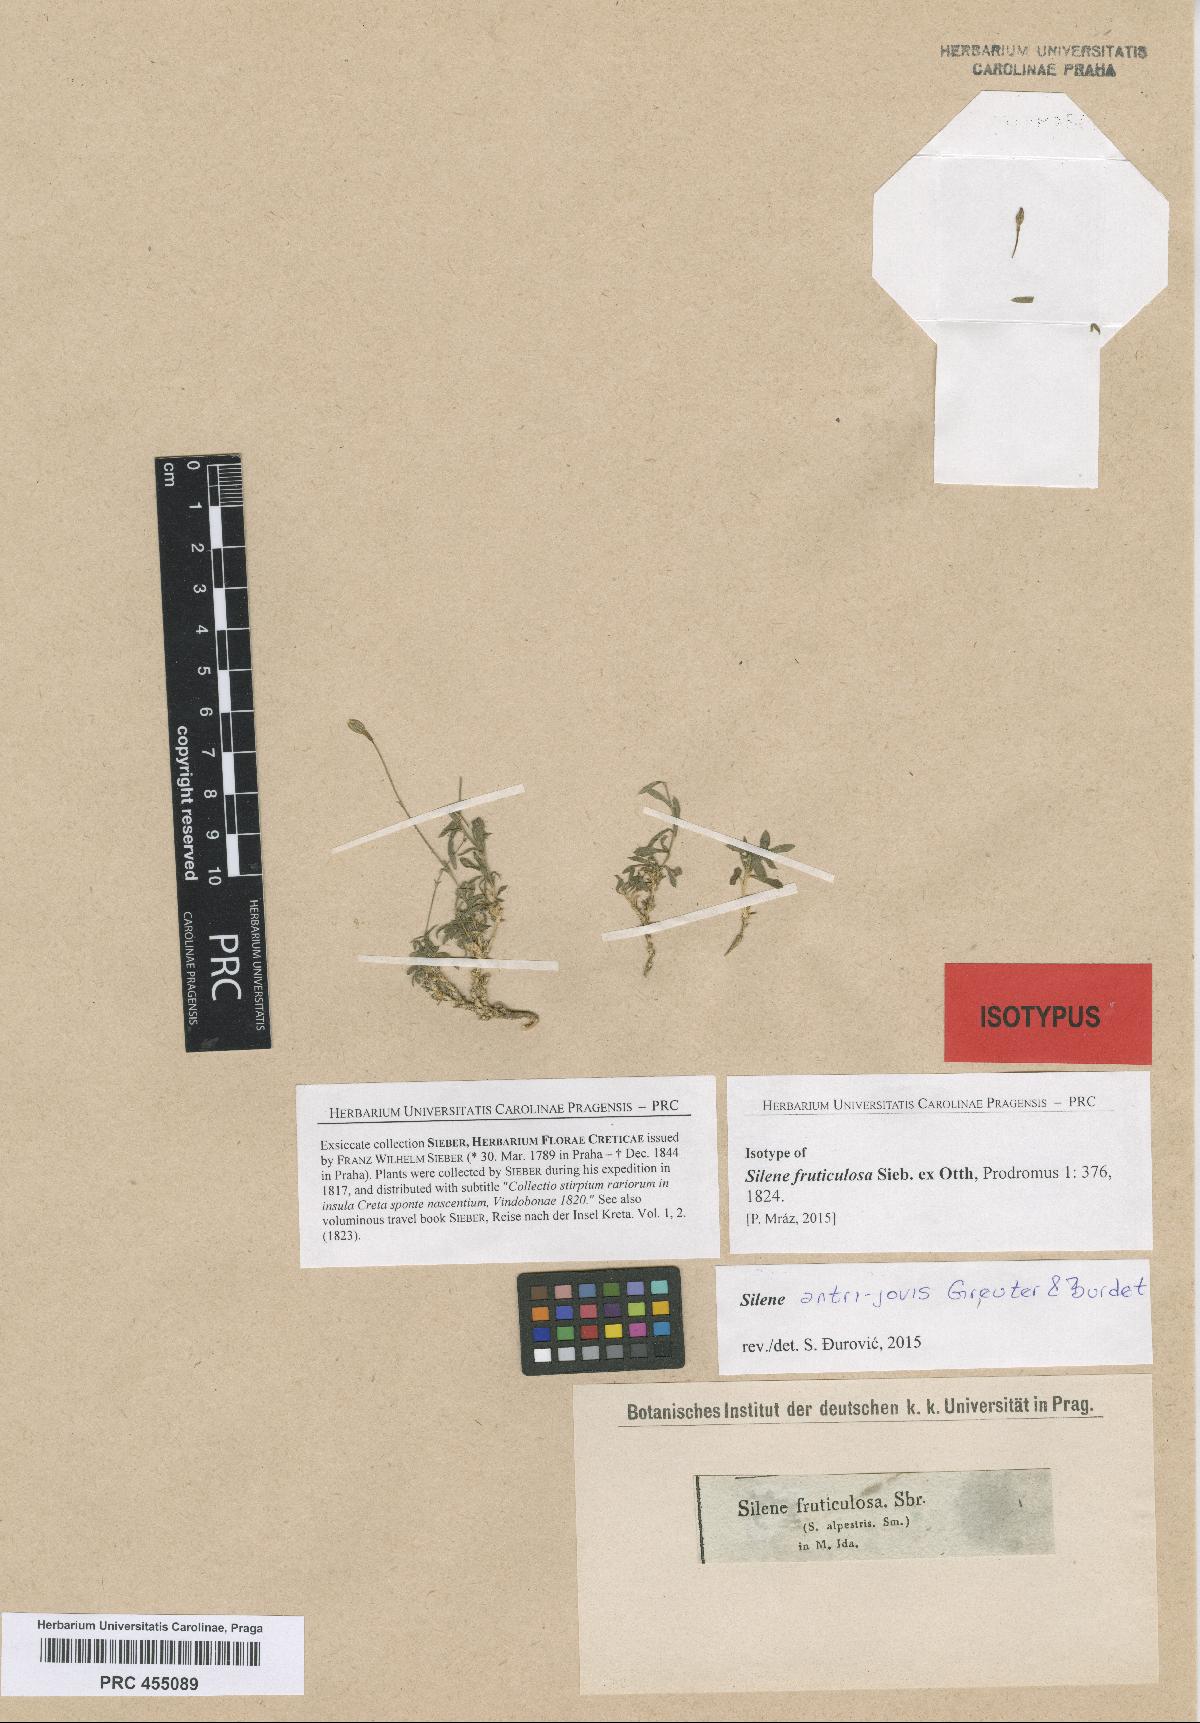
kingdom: Plantae
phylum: Tracheophyta
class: Magnoliopsida
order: Caryophyllales
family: Caryophyllaceae
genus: Silene
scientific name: Silene antri-jovis
